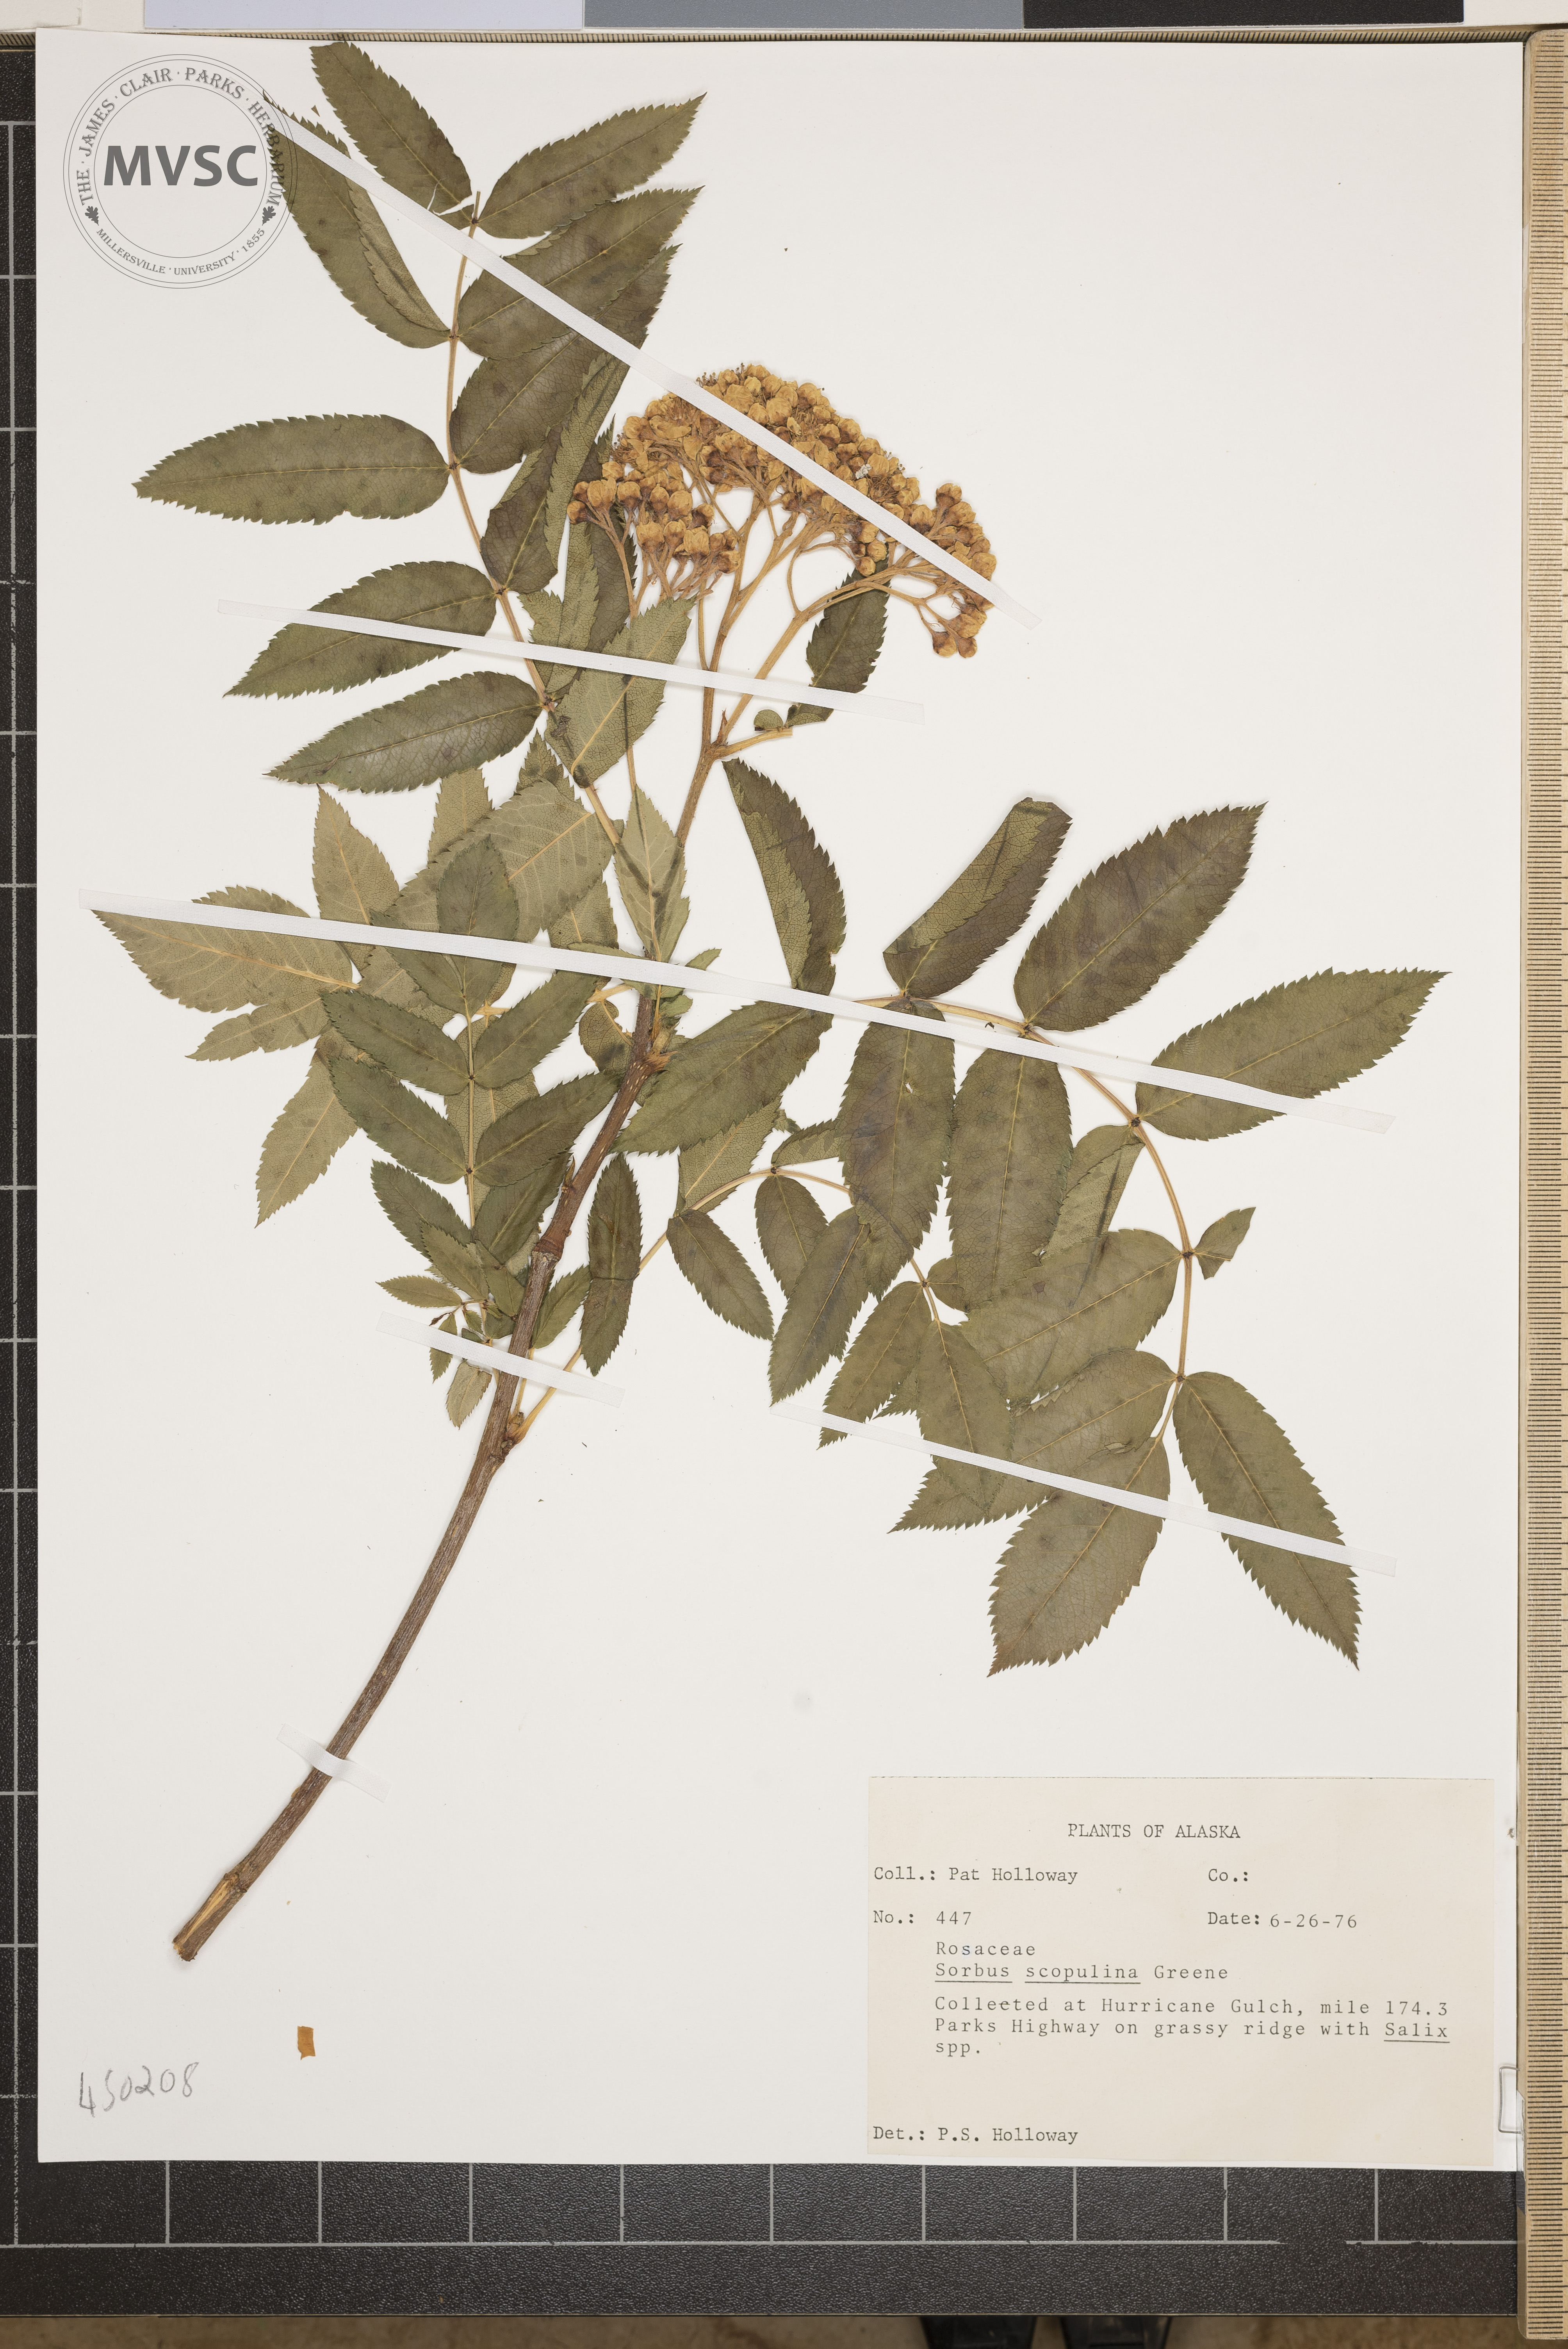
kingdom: Plantae
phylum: Tracheophyta
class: Magnoliopsida
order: Rosales
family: Rosaceae
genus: Sorbus
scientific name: Sorbus scopulina
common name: Greene's mountain-ash
